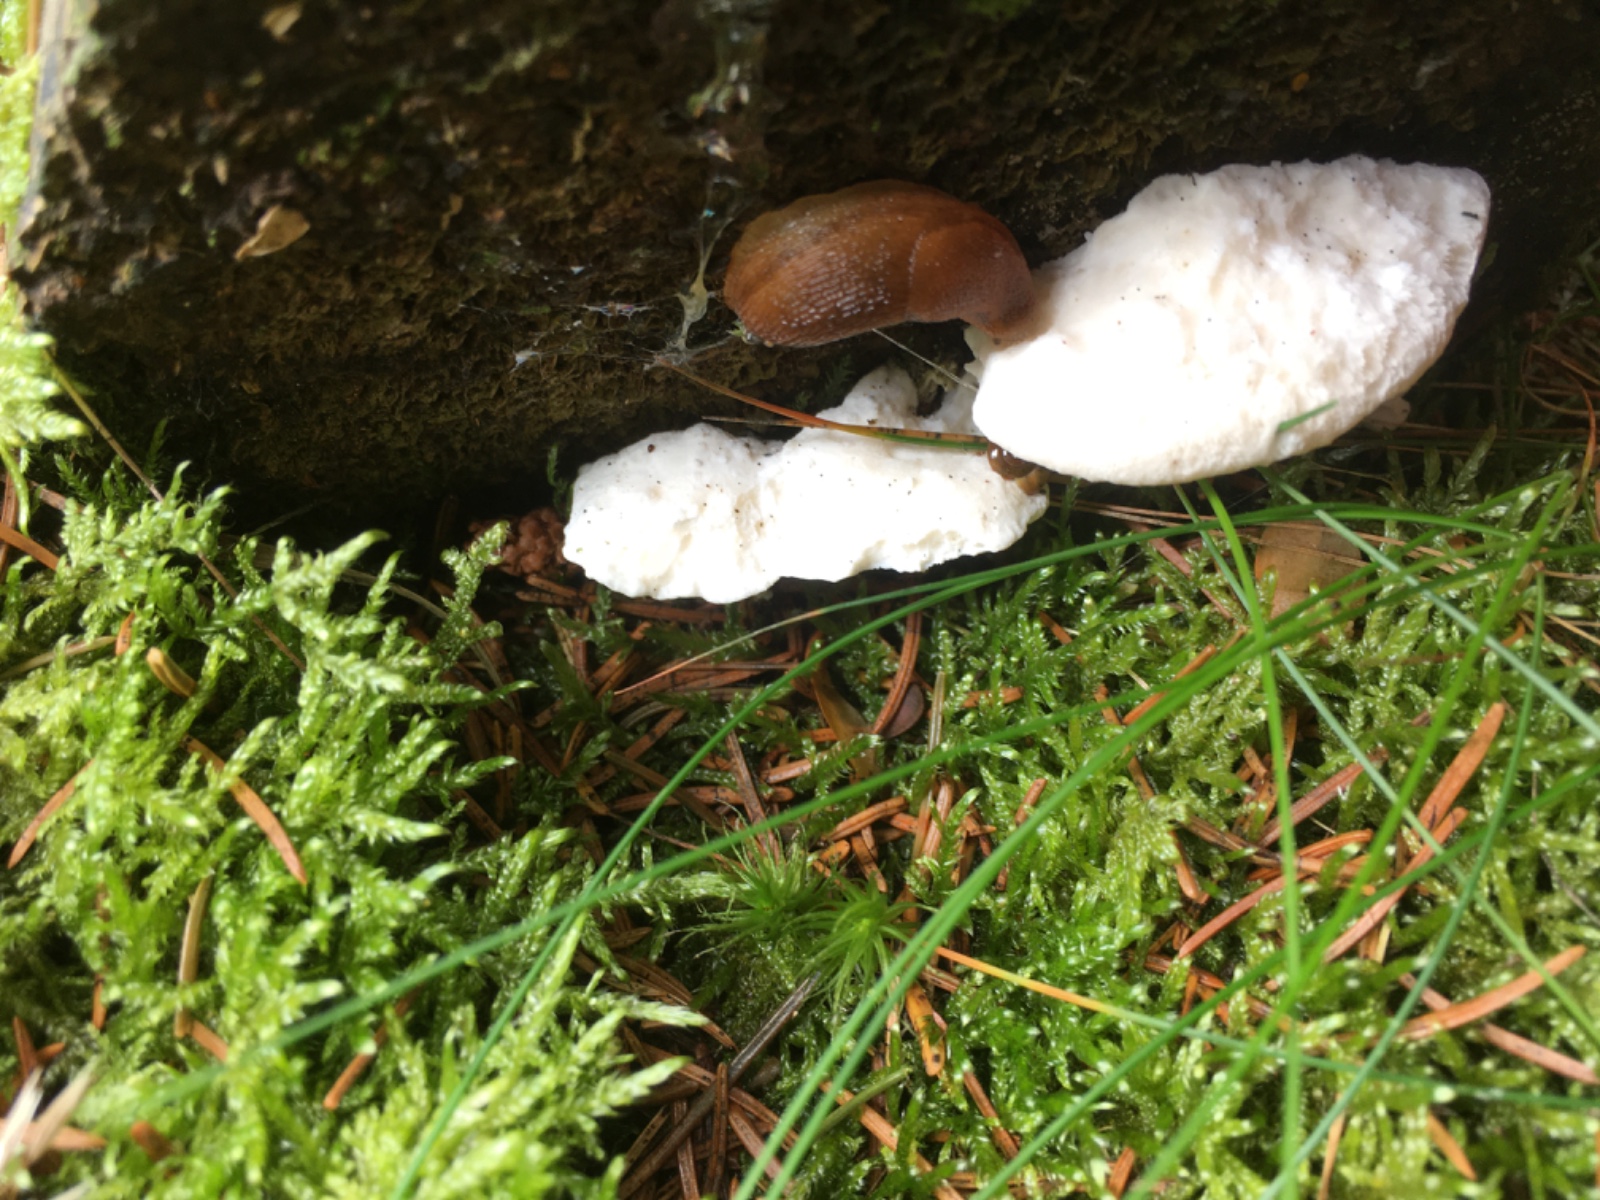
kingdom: Fungi
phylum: Basidiomycota
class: Agaricomycetes
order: Polyporales
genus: Amaropostia
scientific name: Amaropostia stiptica
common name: bitter kødporesvamp
